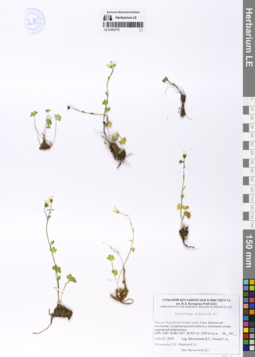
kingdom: Plantae
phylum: Tracheophyta
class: Magnoliopsida
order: Saxifragales
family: Saxifragaceae
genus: Saxifraga
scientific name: Saxifraga sibirica
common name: Siberian saxifrage
